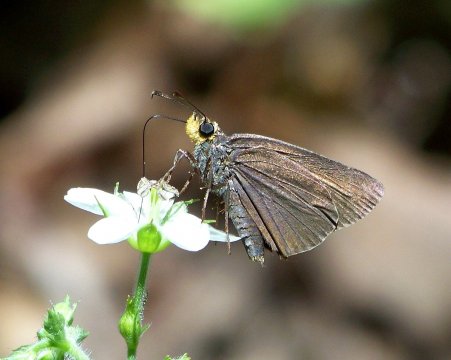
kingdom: Animalia
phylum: Arthropoda
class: Insecta
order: Lepidoptera
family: Hesperiidae
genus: Mastor
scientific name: Mastor fimbriata
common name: Orange-edged Roadside-Skipper
